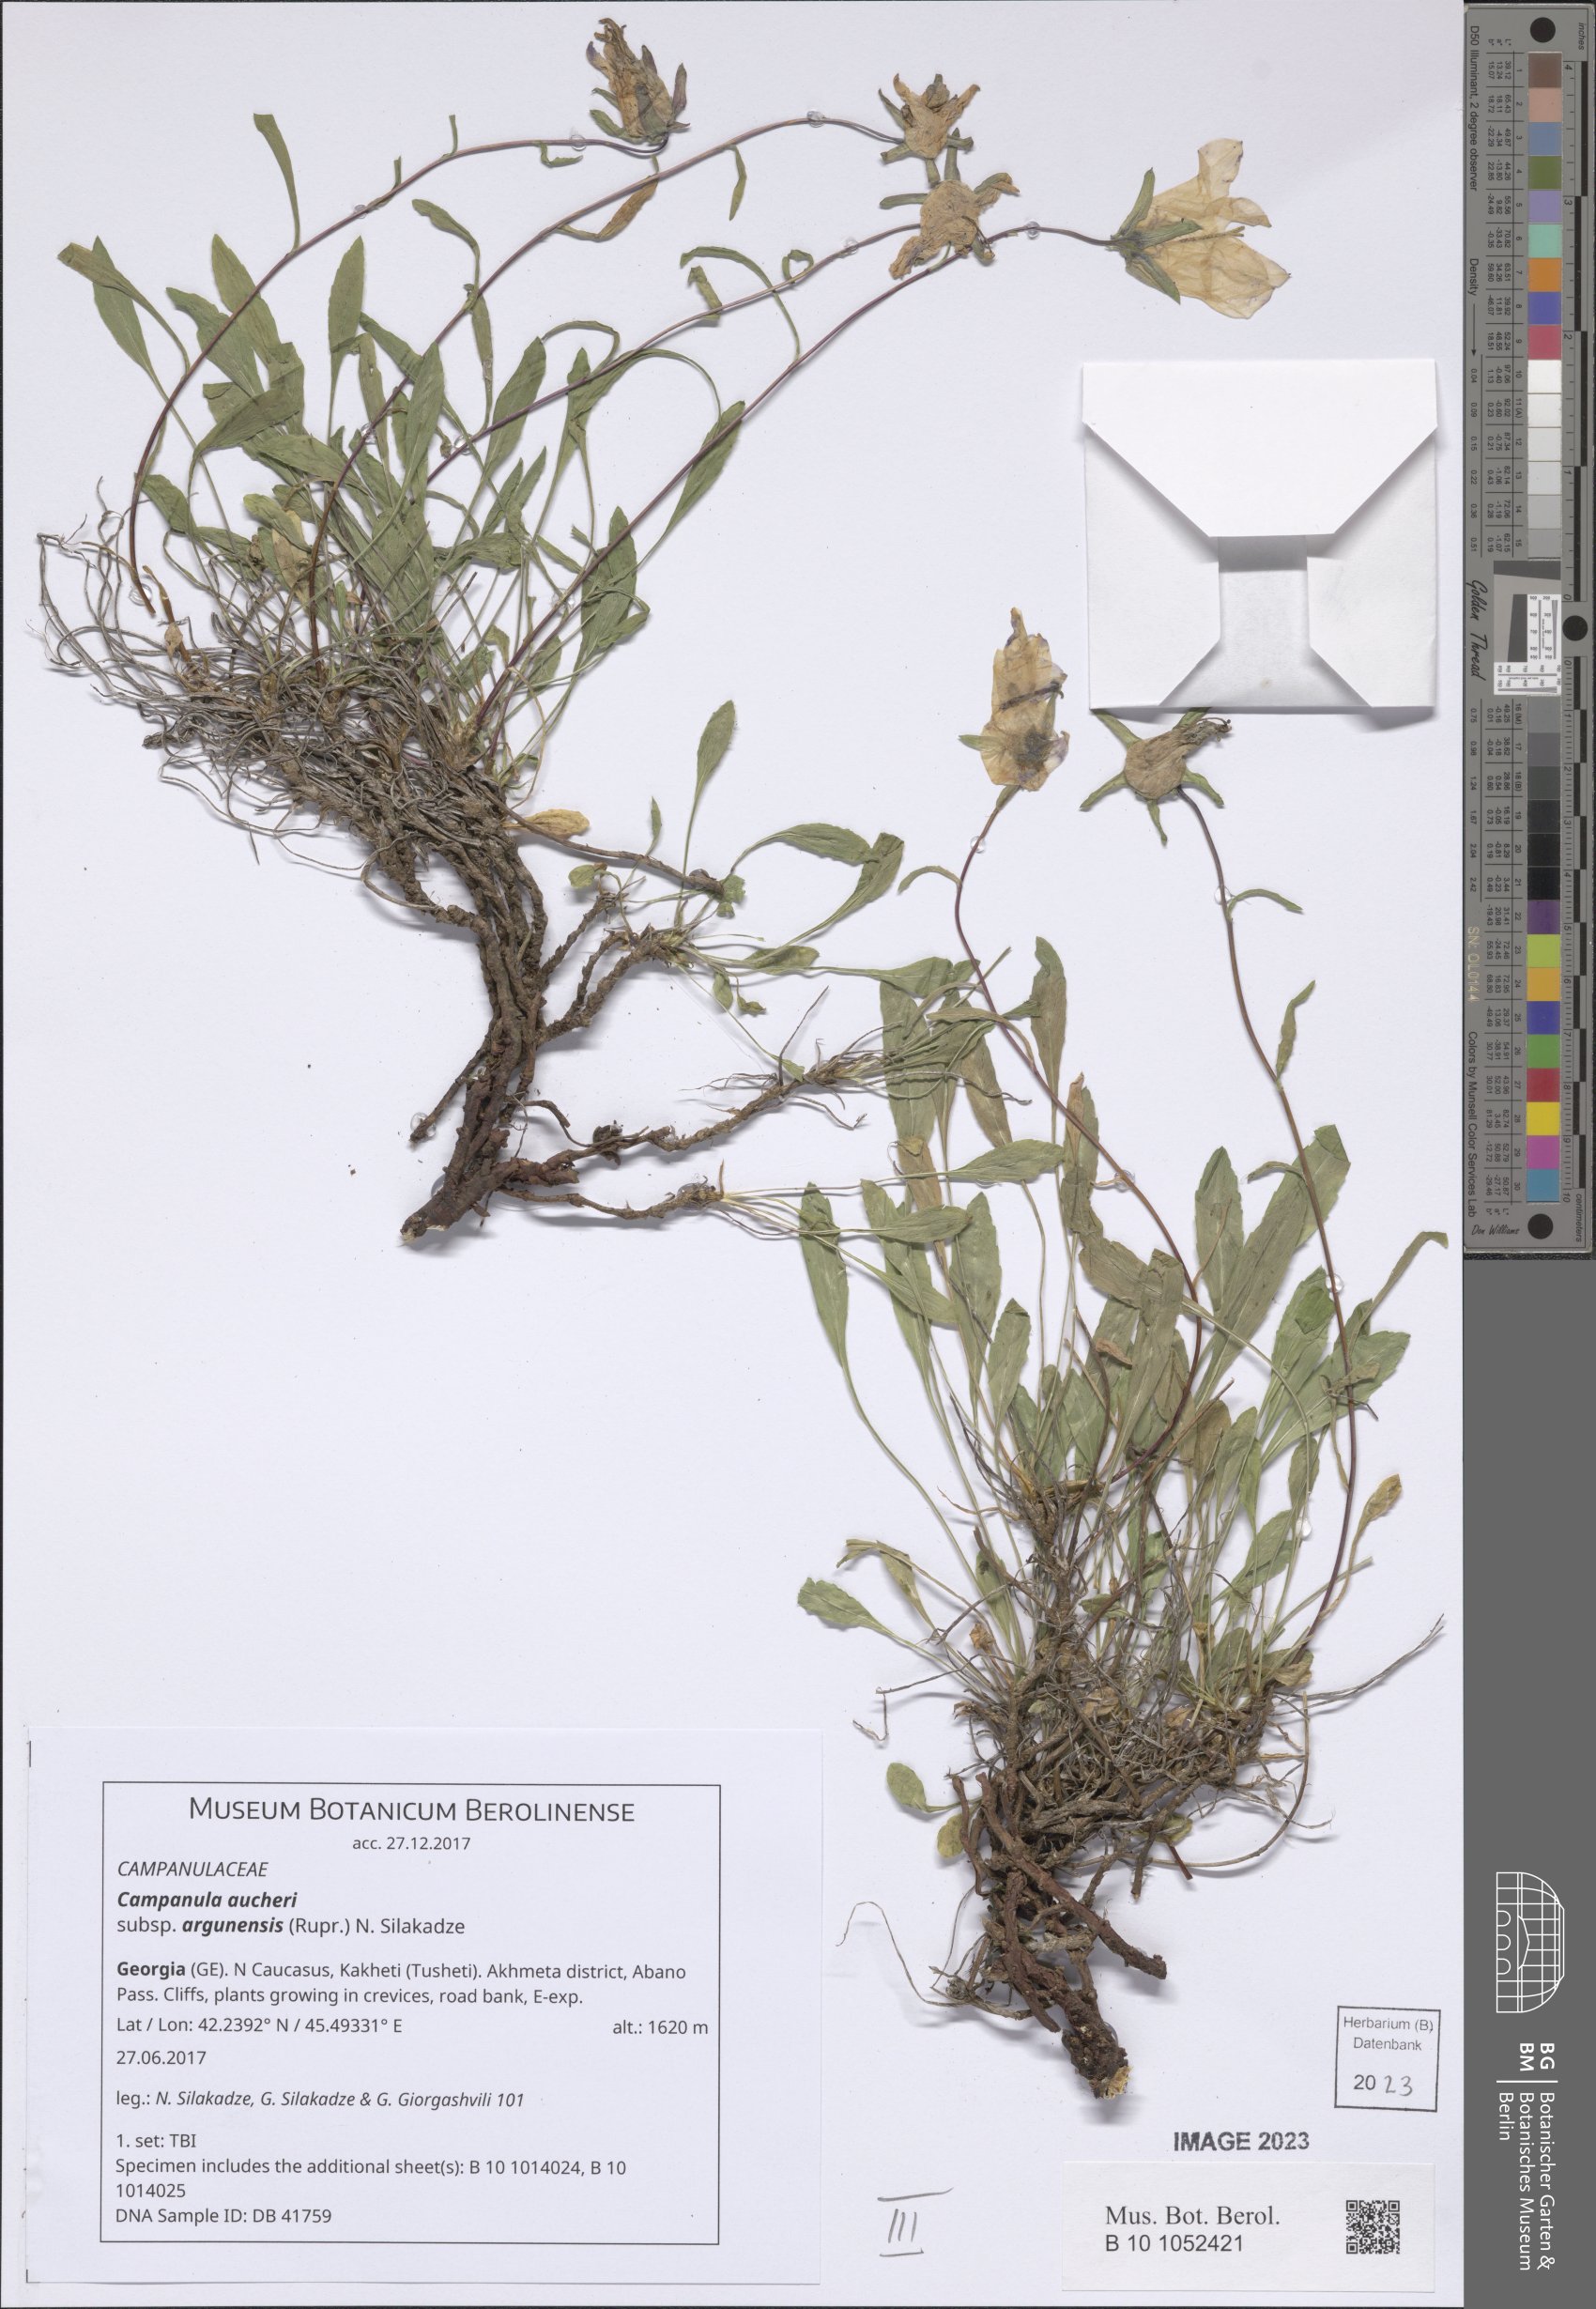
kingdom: Plantae
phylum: Tracheophyta
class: Magnoliopsida
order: Asterales
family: Campanulaceae
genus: Campanula
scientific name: Campanula saxifraga
